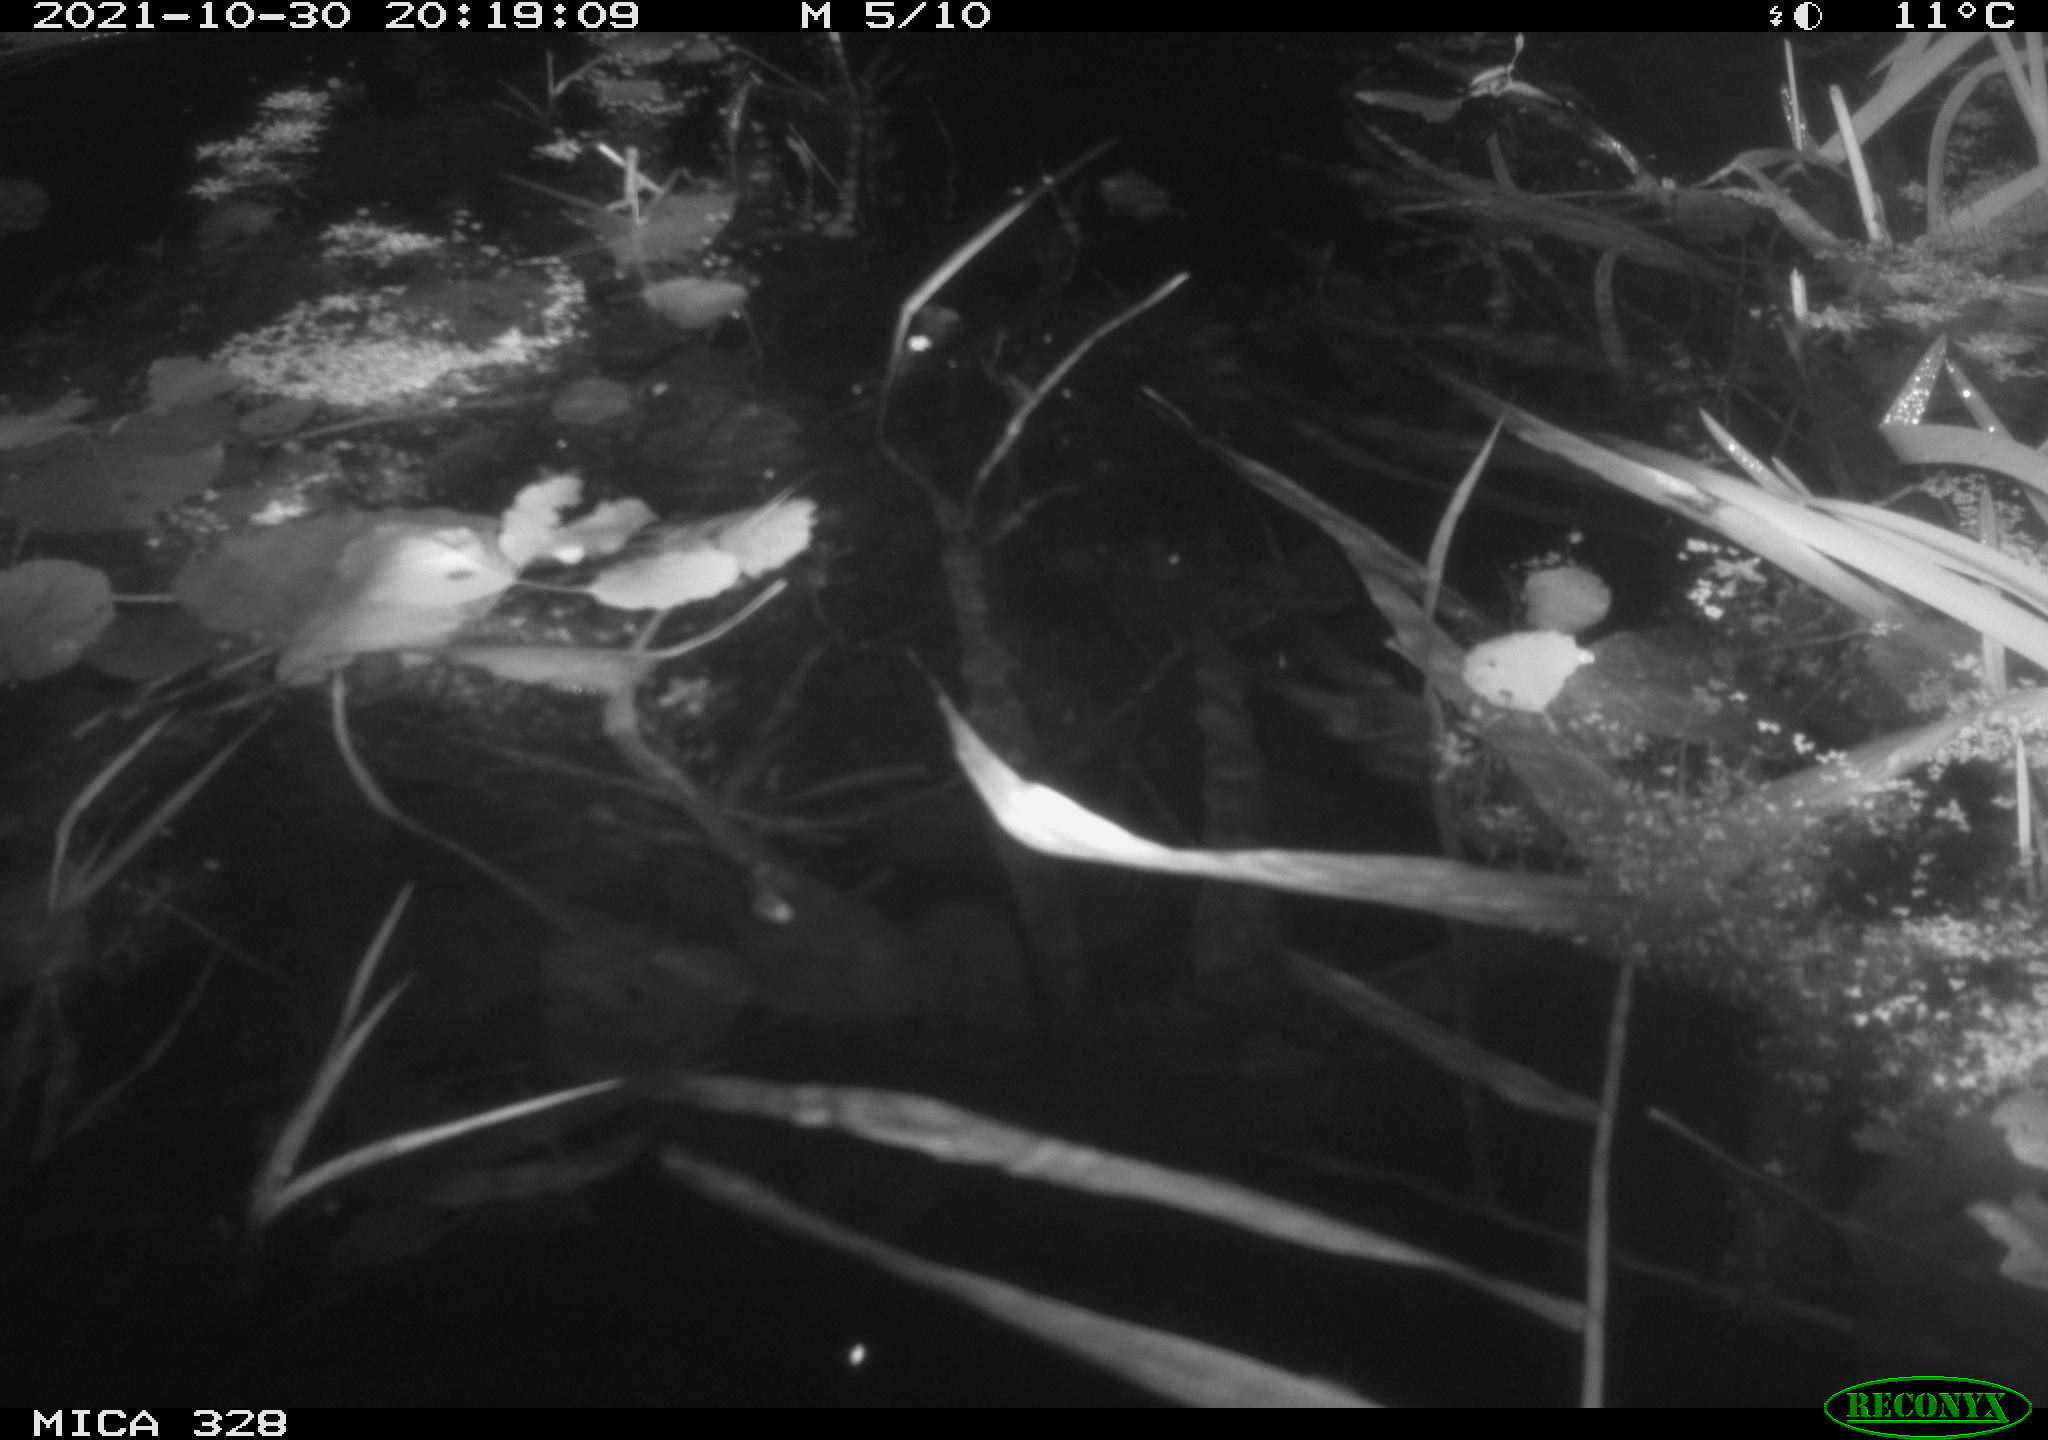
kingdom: Animalia
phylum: Chordata
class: Mammalia
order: Rodentia
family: Cricetidae
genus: Ondatra
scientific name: Ondatra zibethicus
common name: Muskrat
